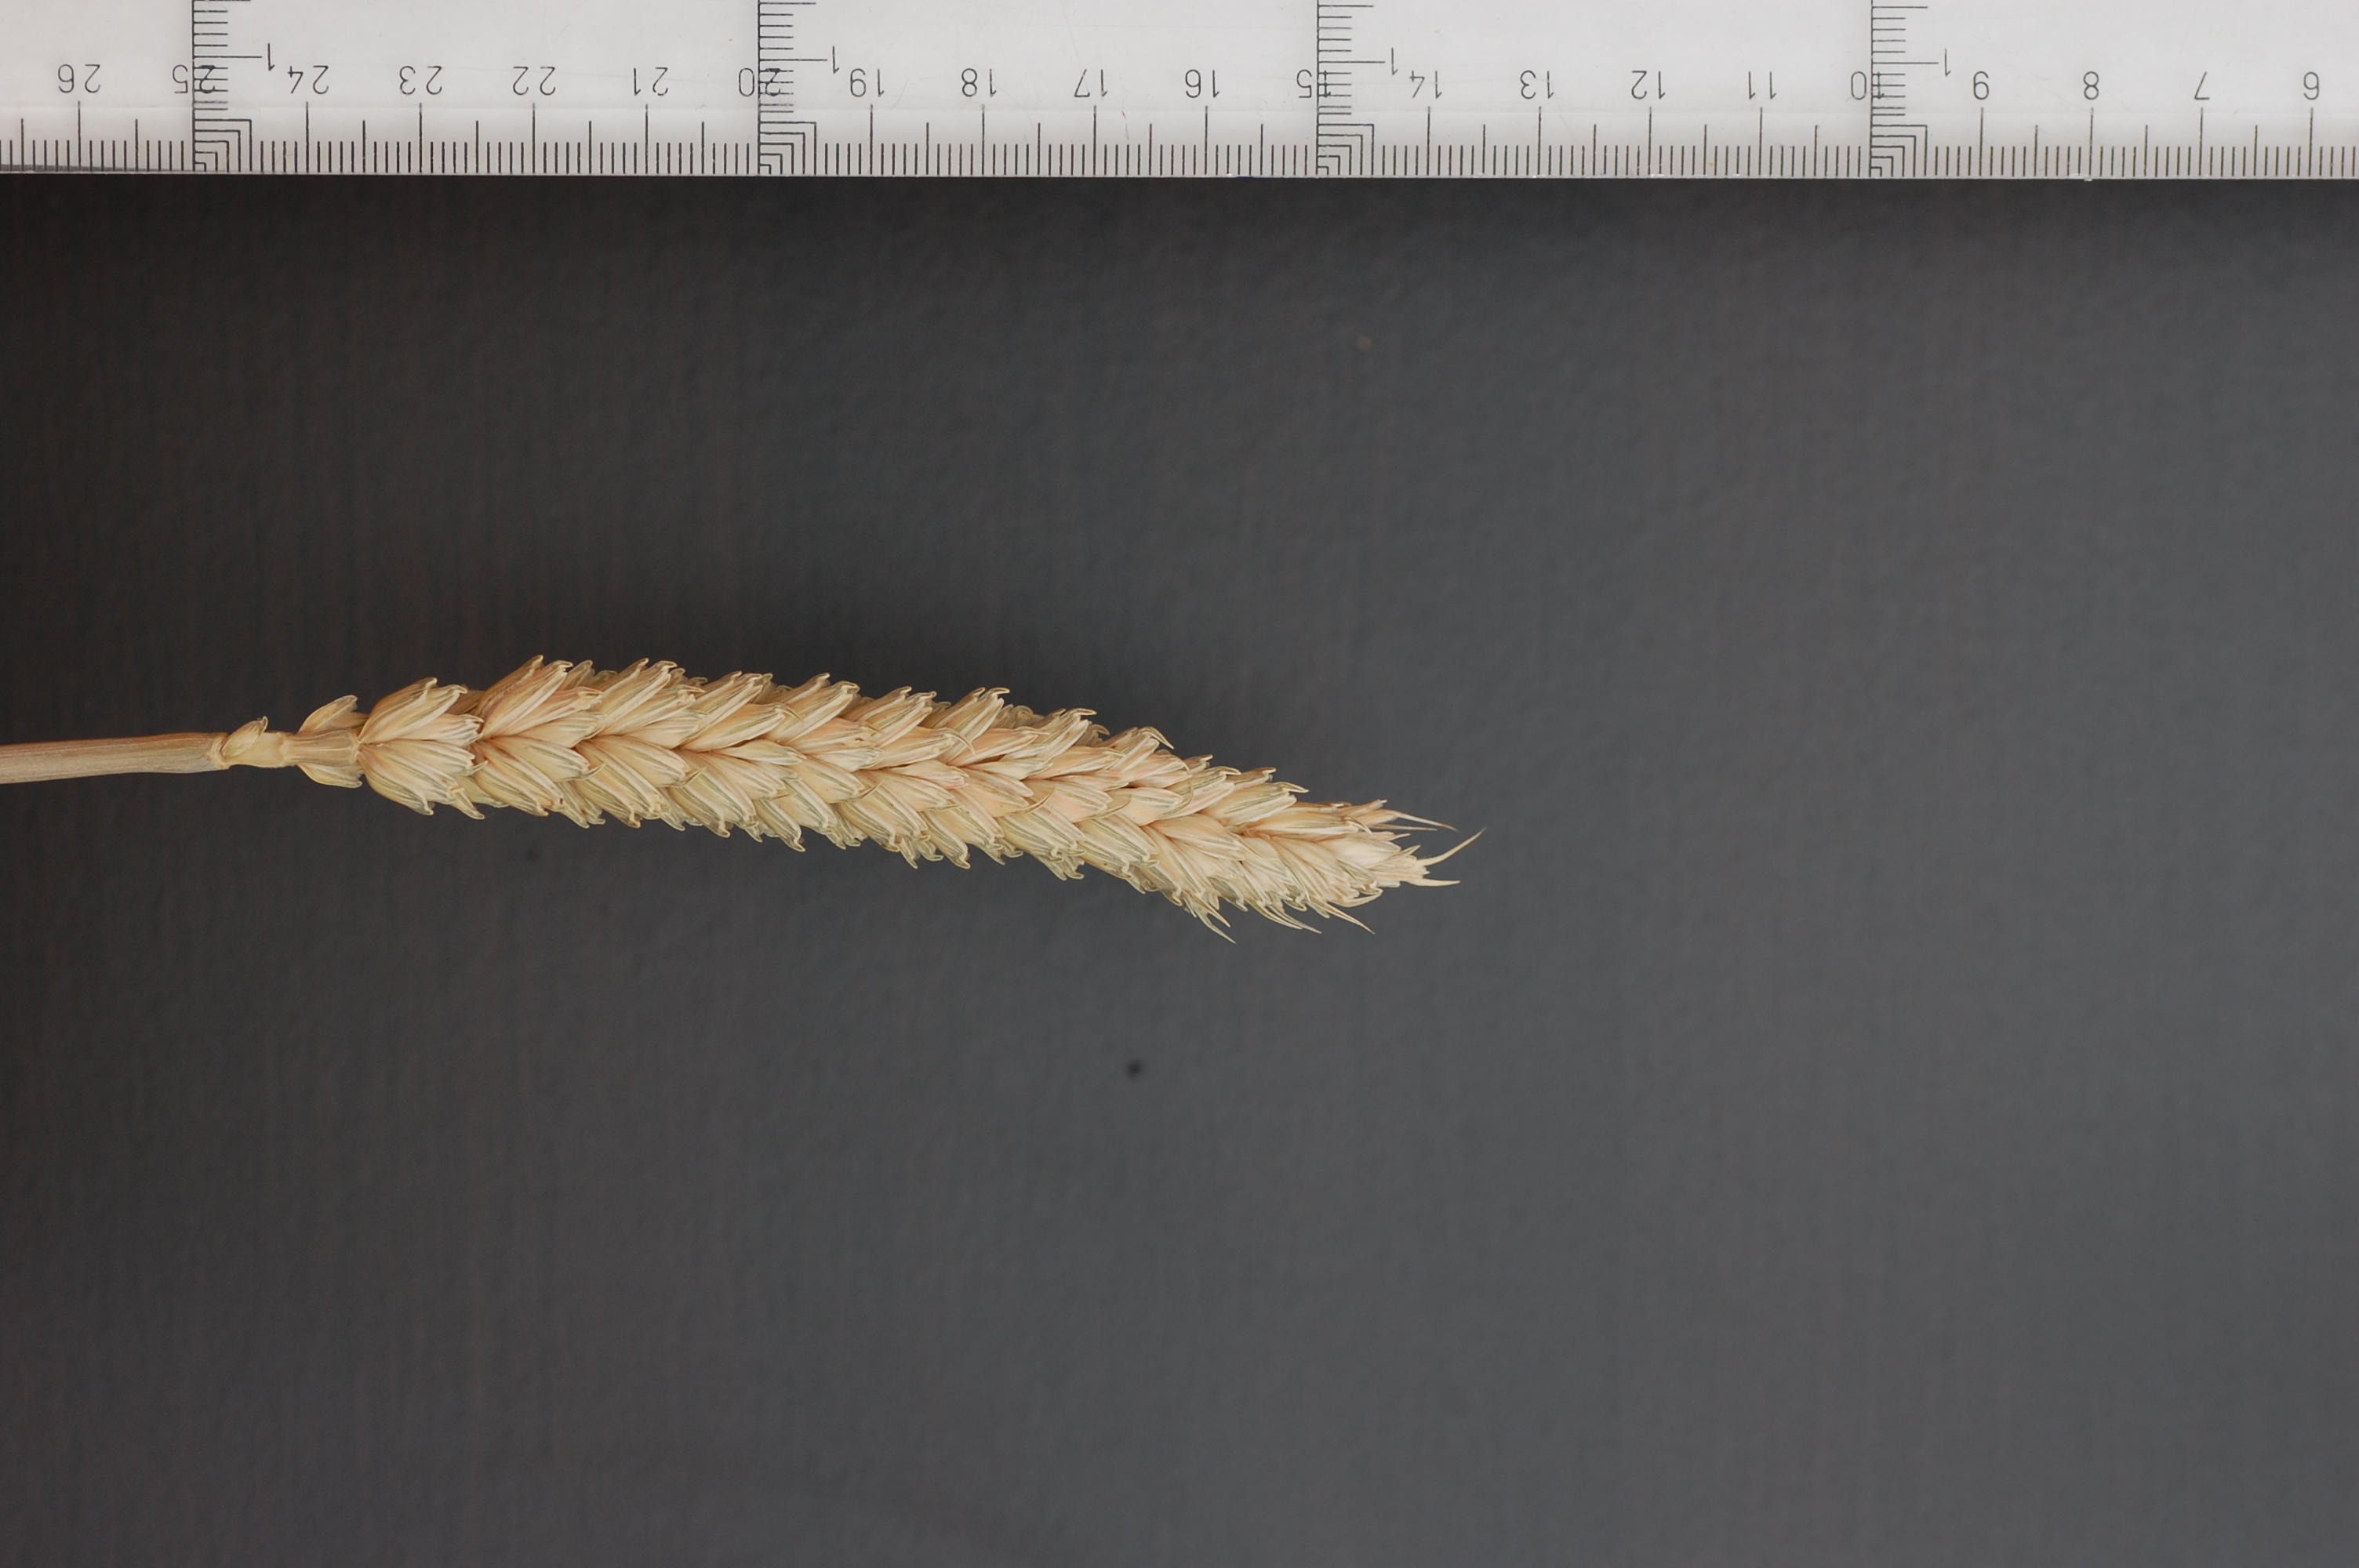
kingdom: Plantae
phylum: Tracheophyta
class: Liliopsida
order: Poales
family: Poaceae
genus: Triticum
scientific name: Triticum aestivum
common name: Common wheat
